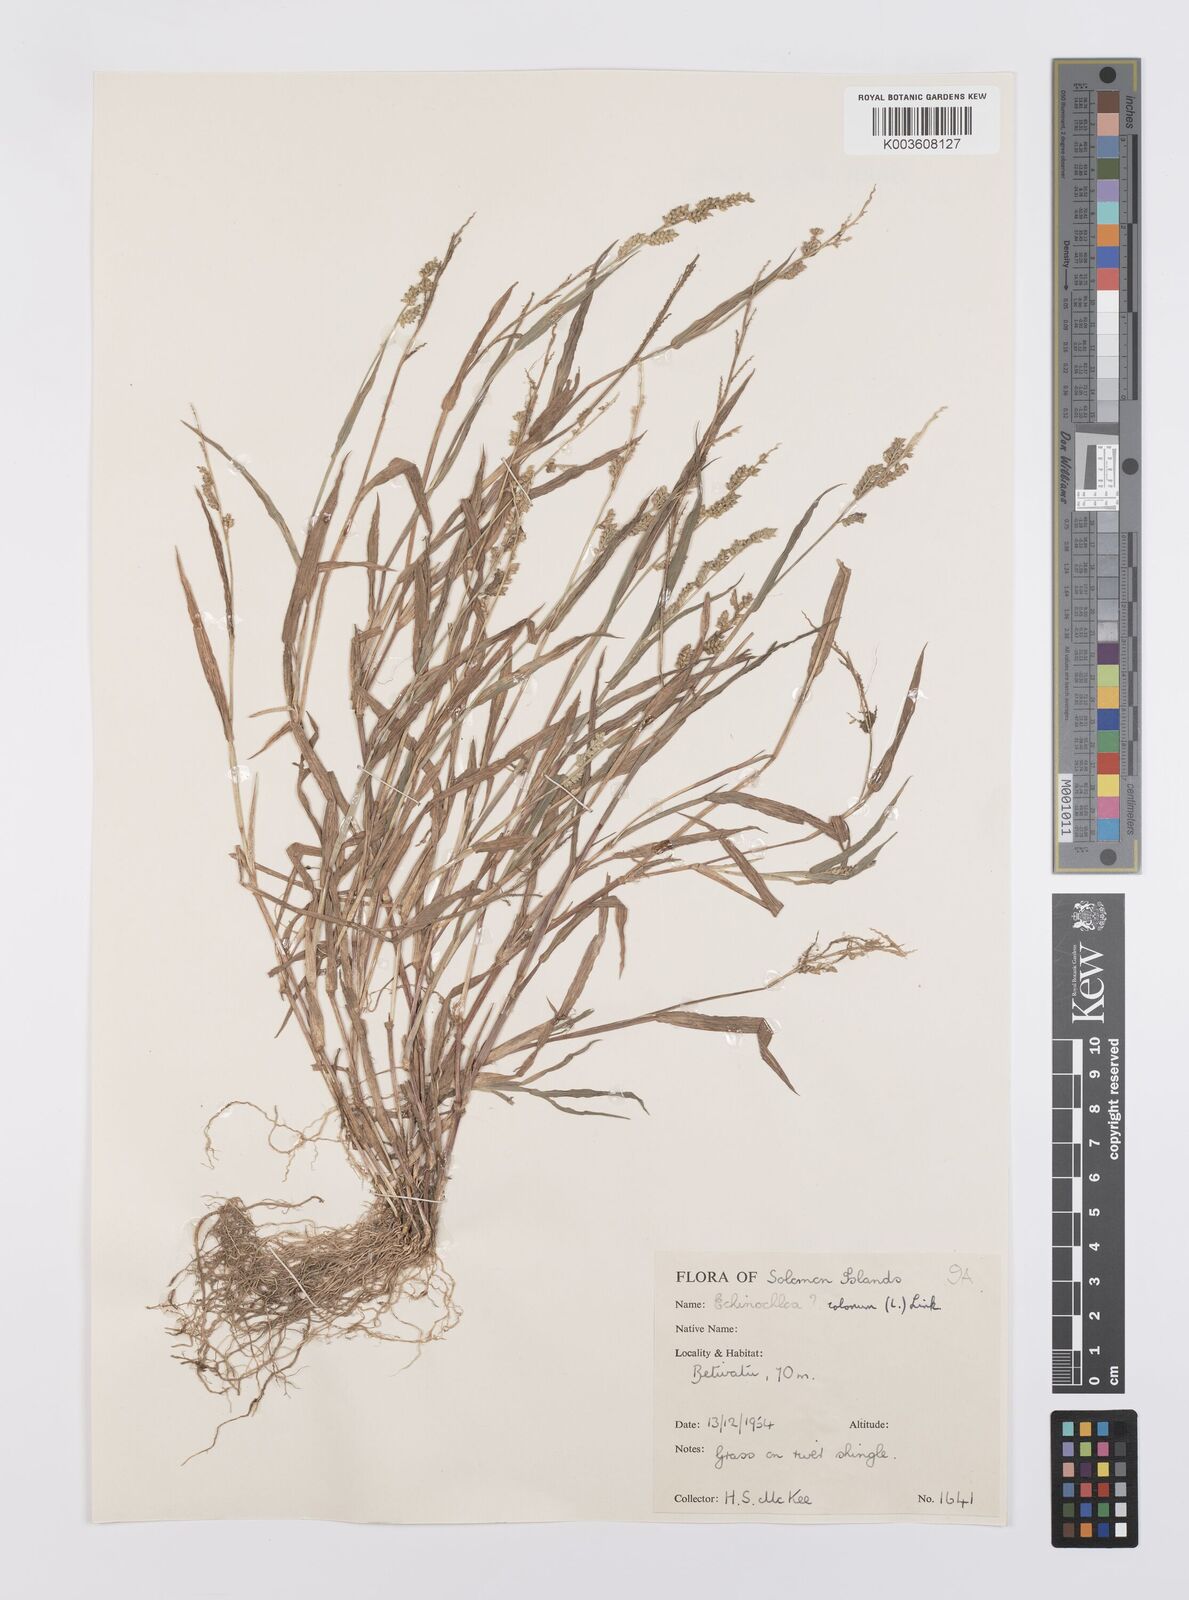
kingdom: Plantae
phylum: Tracheophyta
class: Liliopsida
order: Poales
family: Poaceae
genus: Echinochloa
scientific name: Echinochloa colonum
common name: Jungle rice
